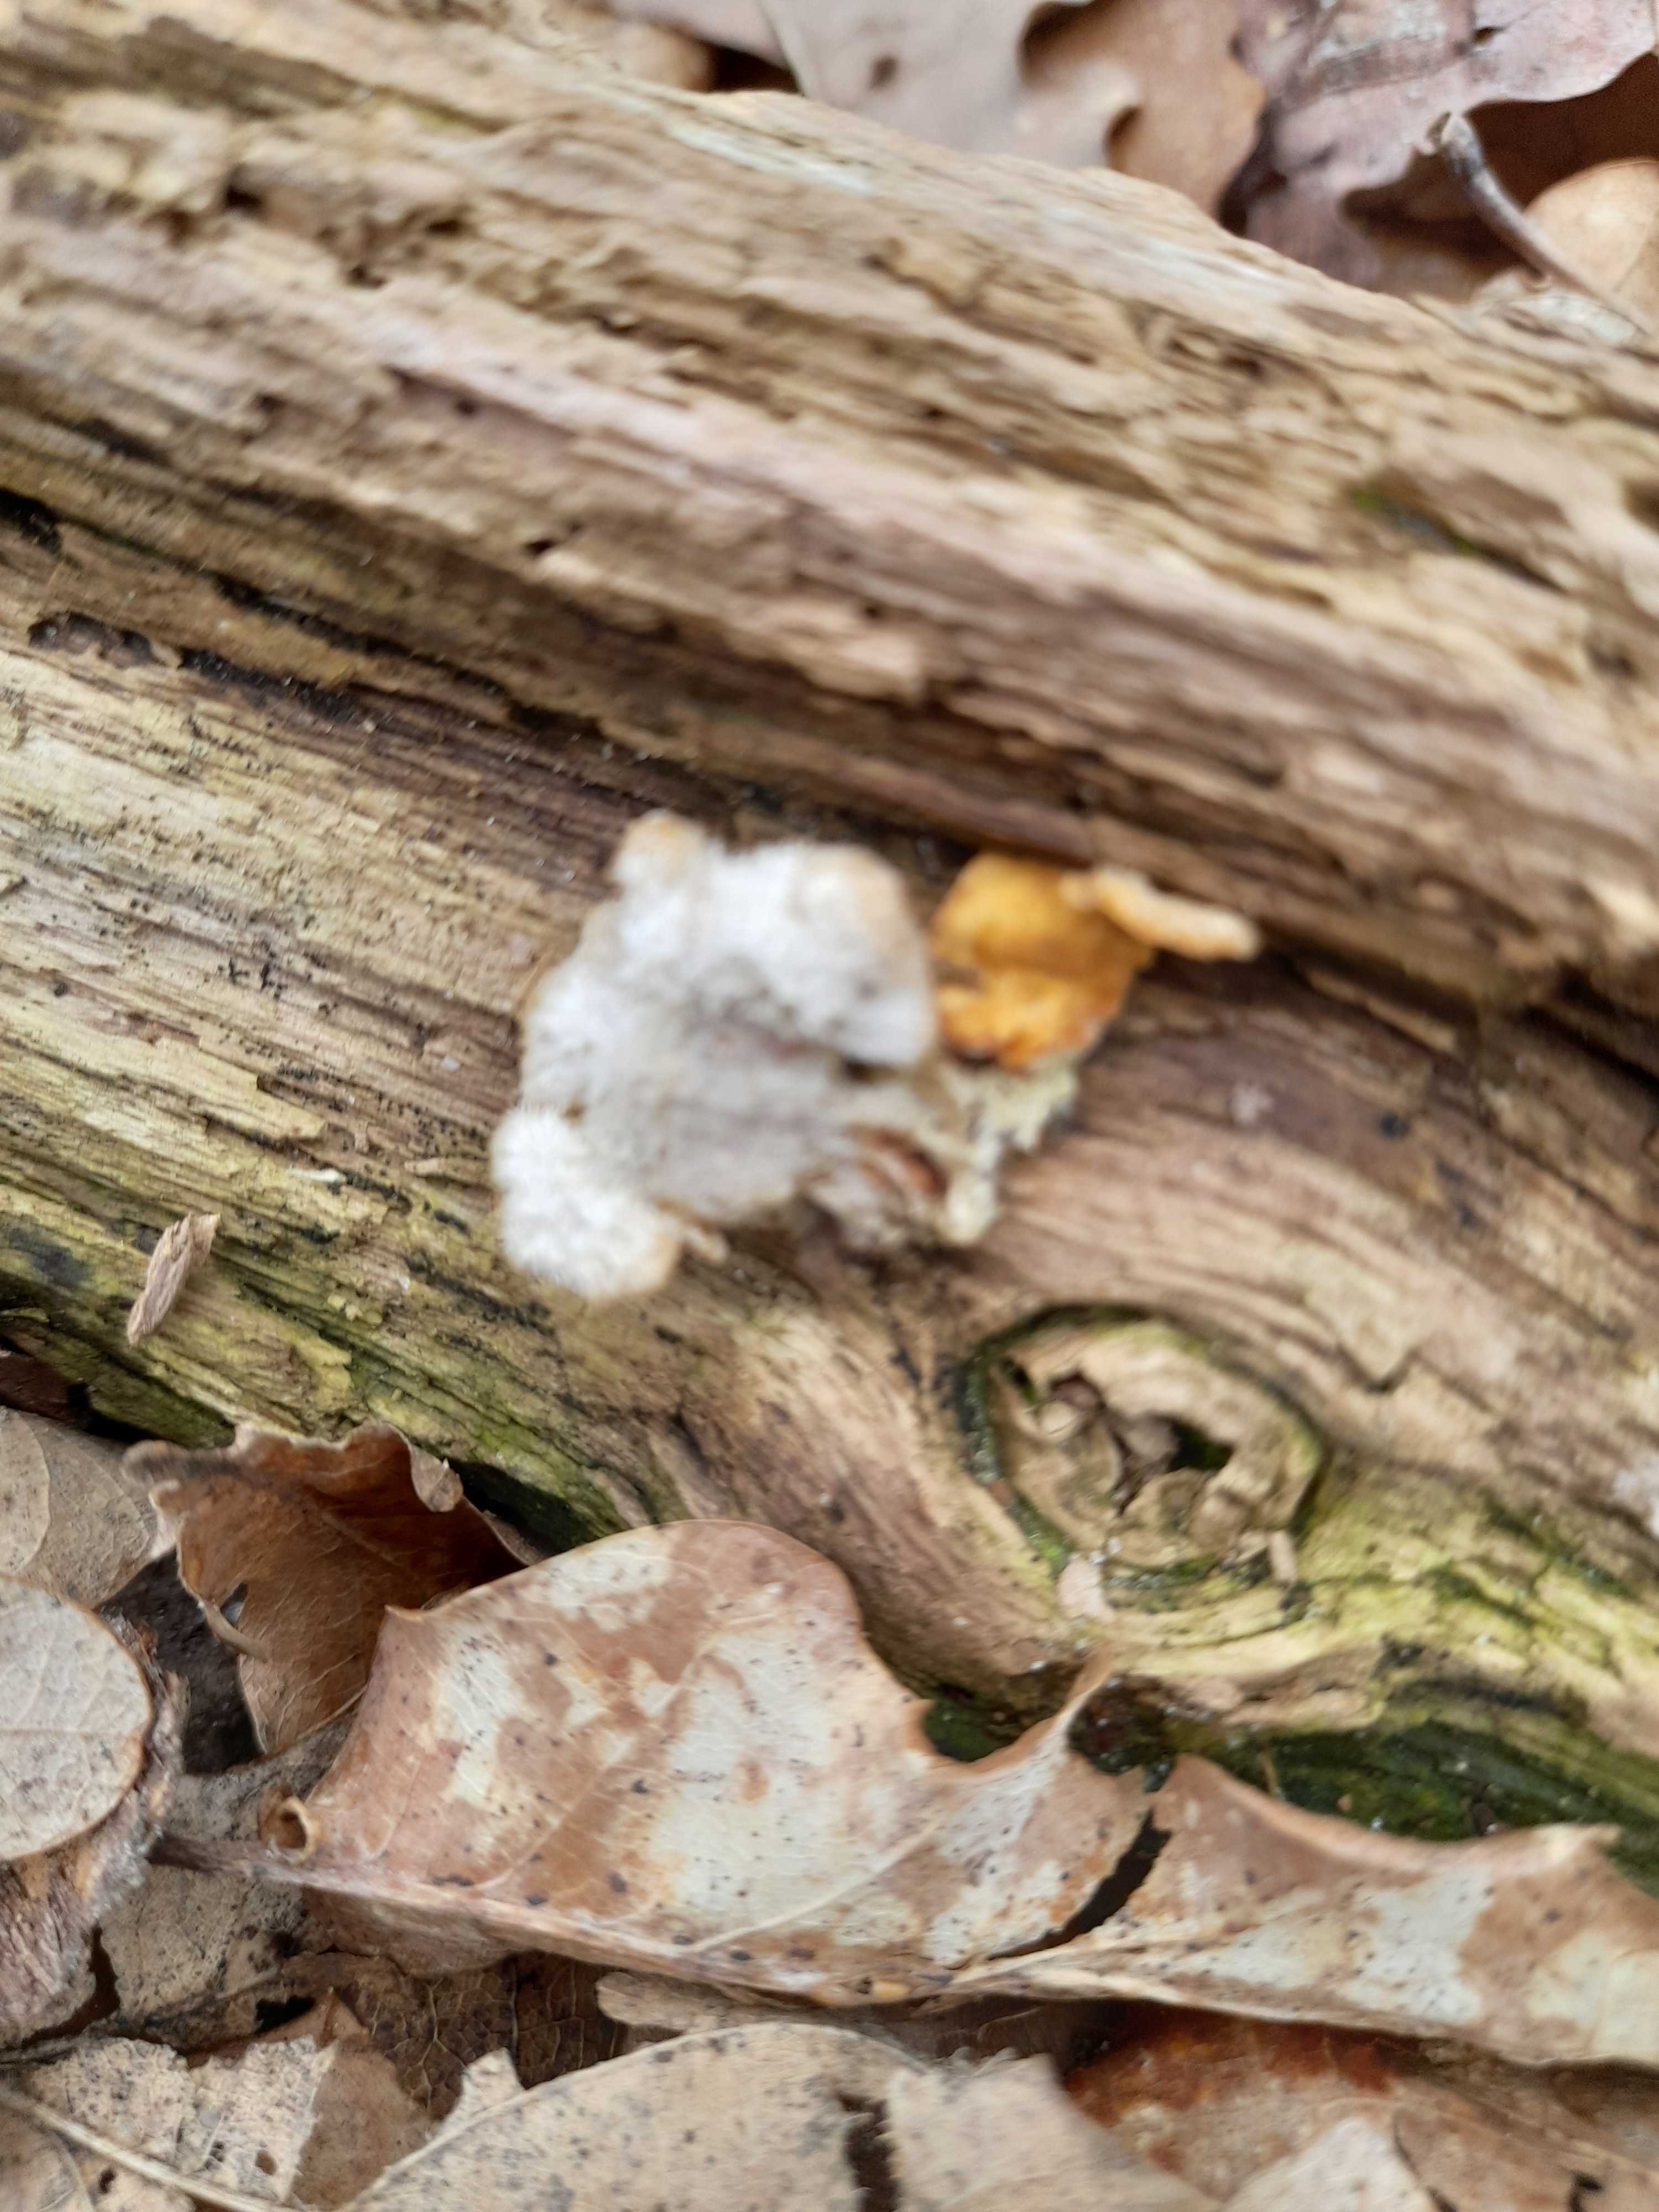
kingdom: Fungi
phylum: Basidiomycota
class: Agaricomycetes
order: Russulales
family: Stereaceae
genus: Stereum
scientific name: Stereum hirsutum
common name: håret lædersvamp
